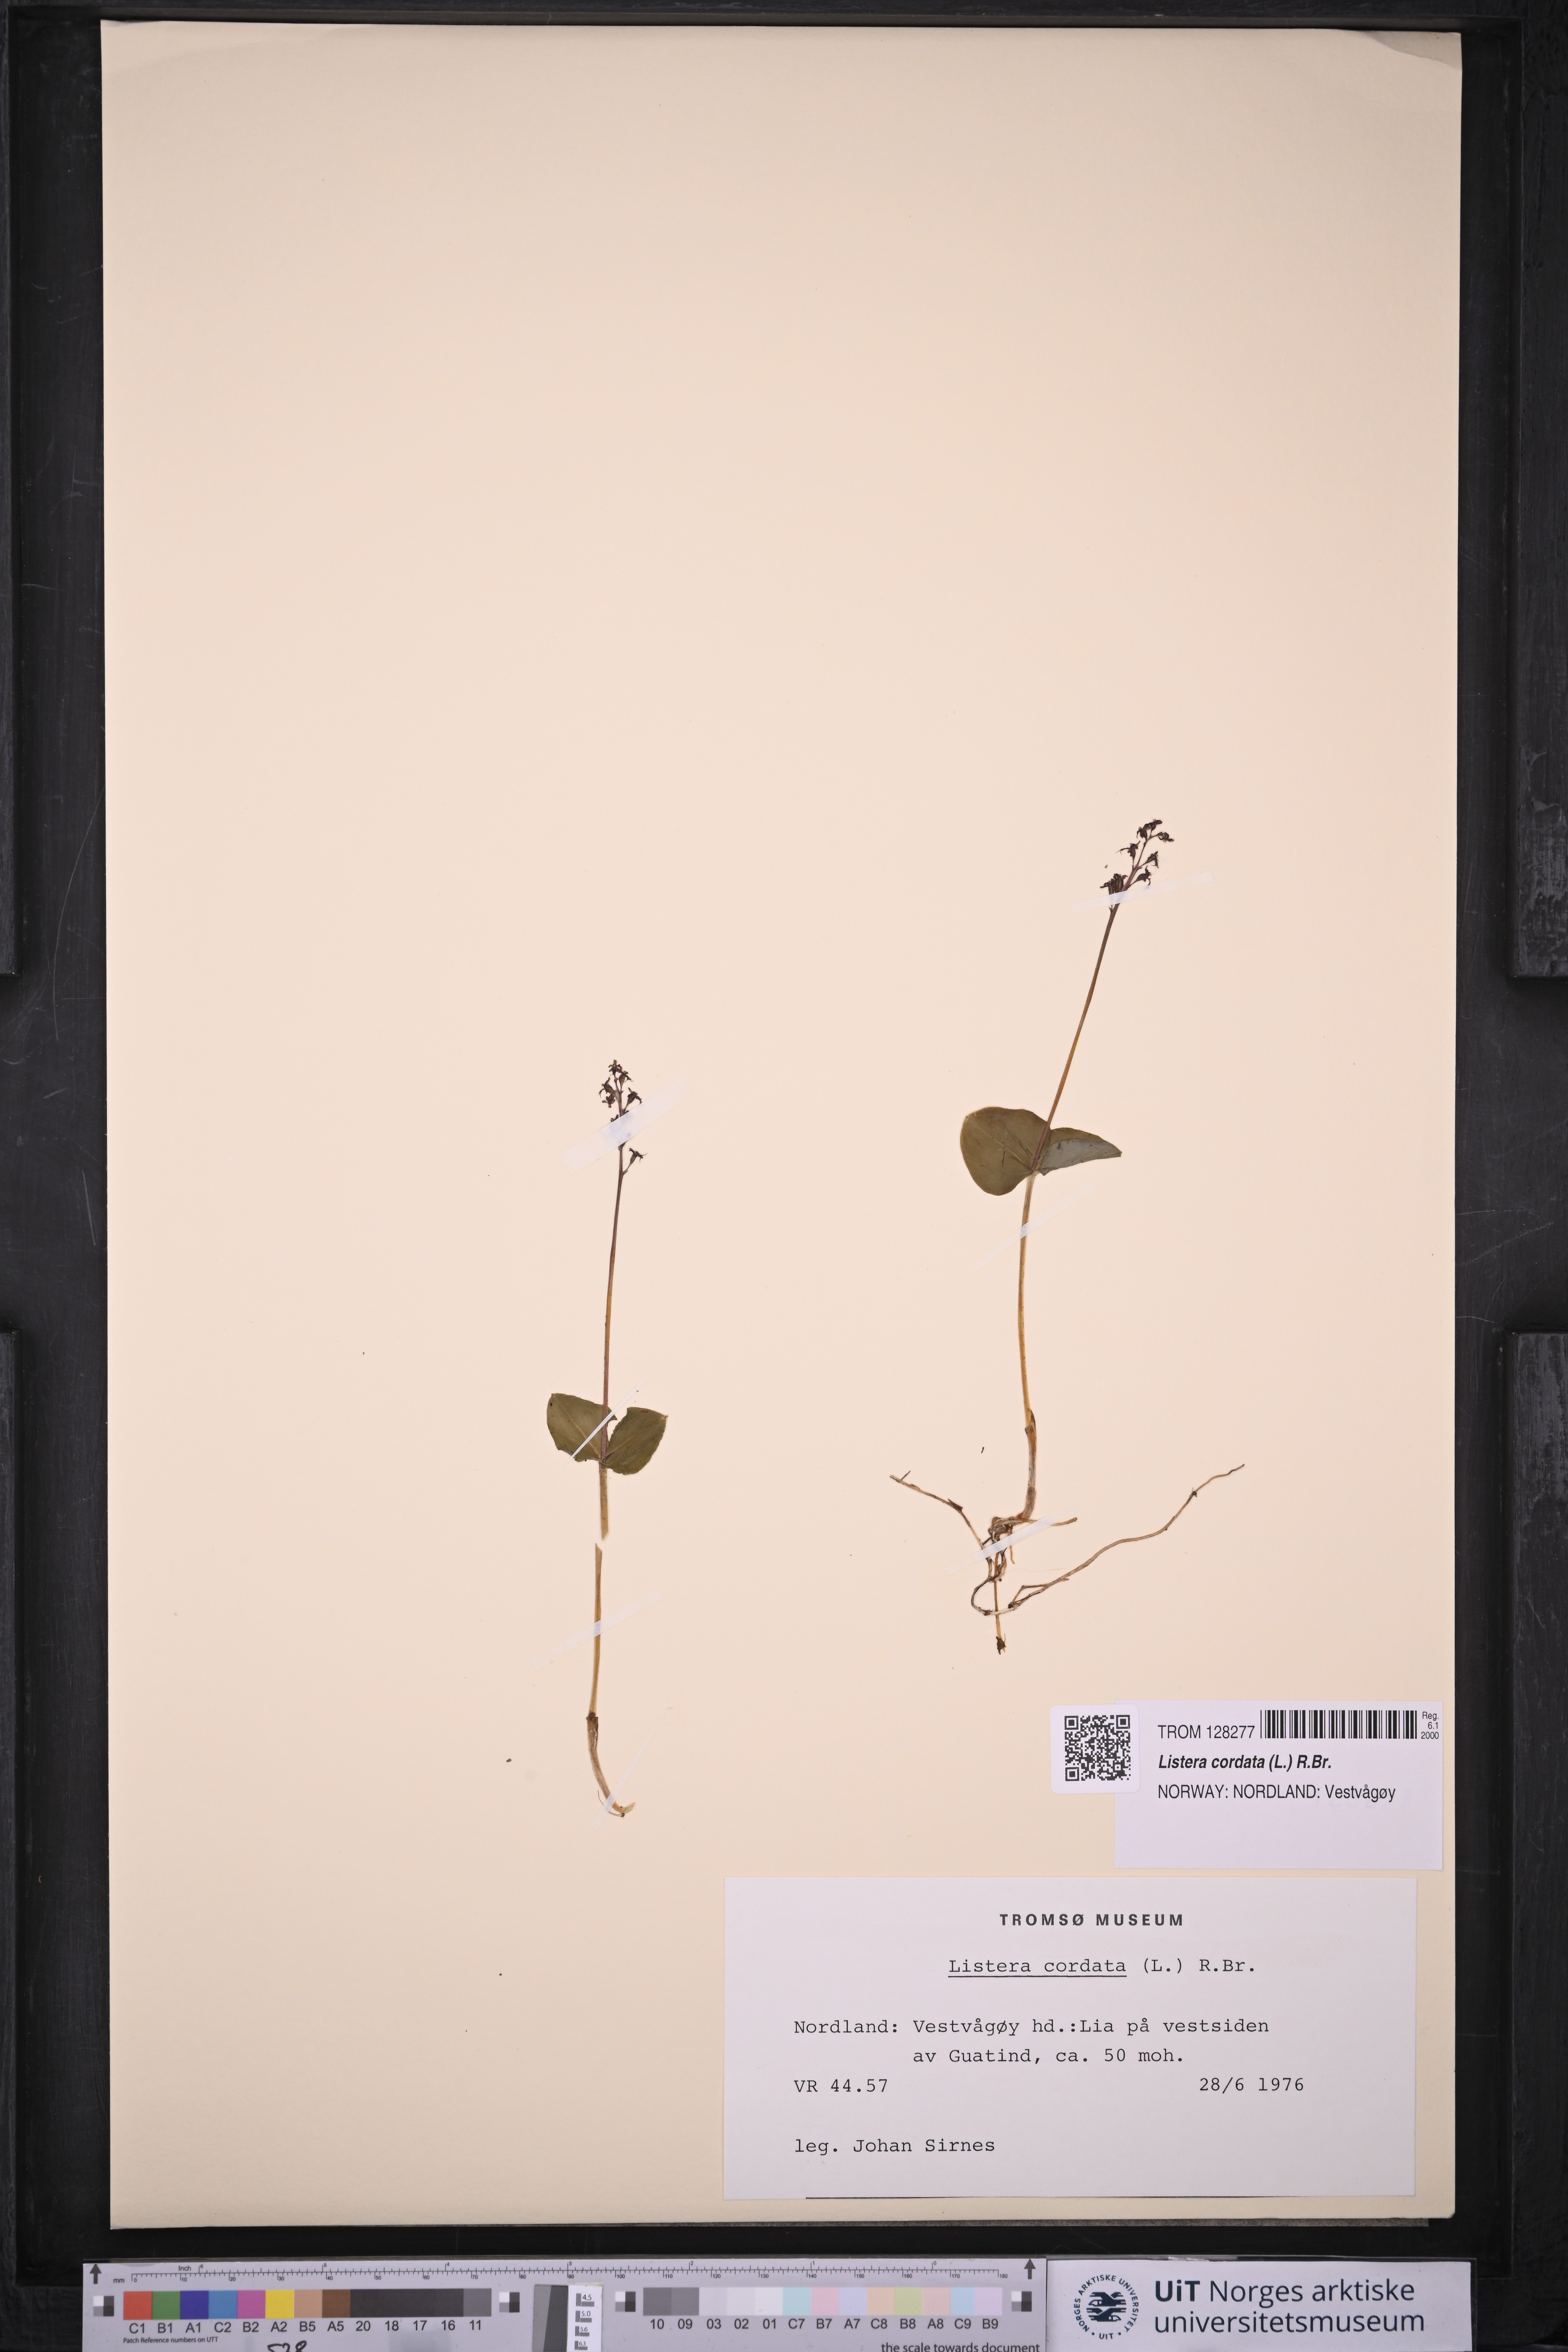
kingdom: Plantae
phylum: Tracheophyta
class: Liliopsida
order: Asparagales
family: Orchidaceae
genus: Neottia
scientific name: Neottia cordata
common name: Lesser twayblade
